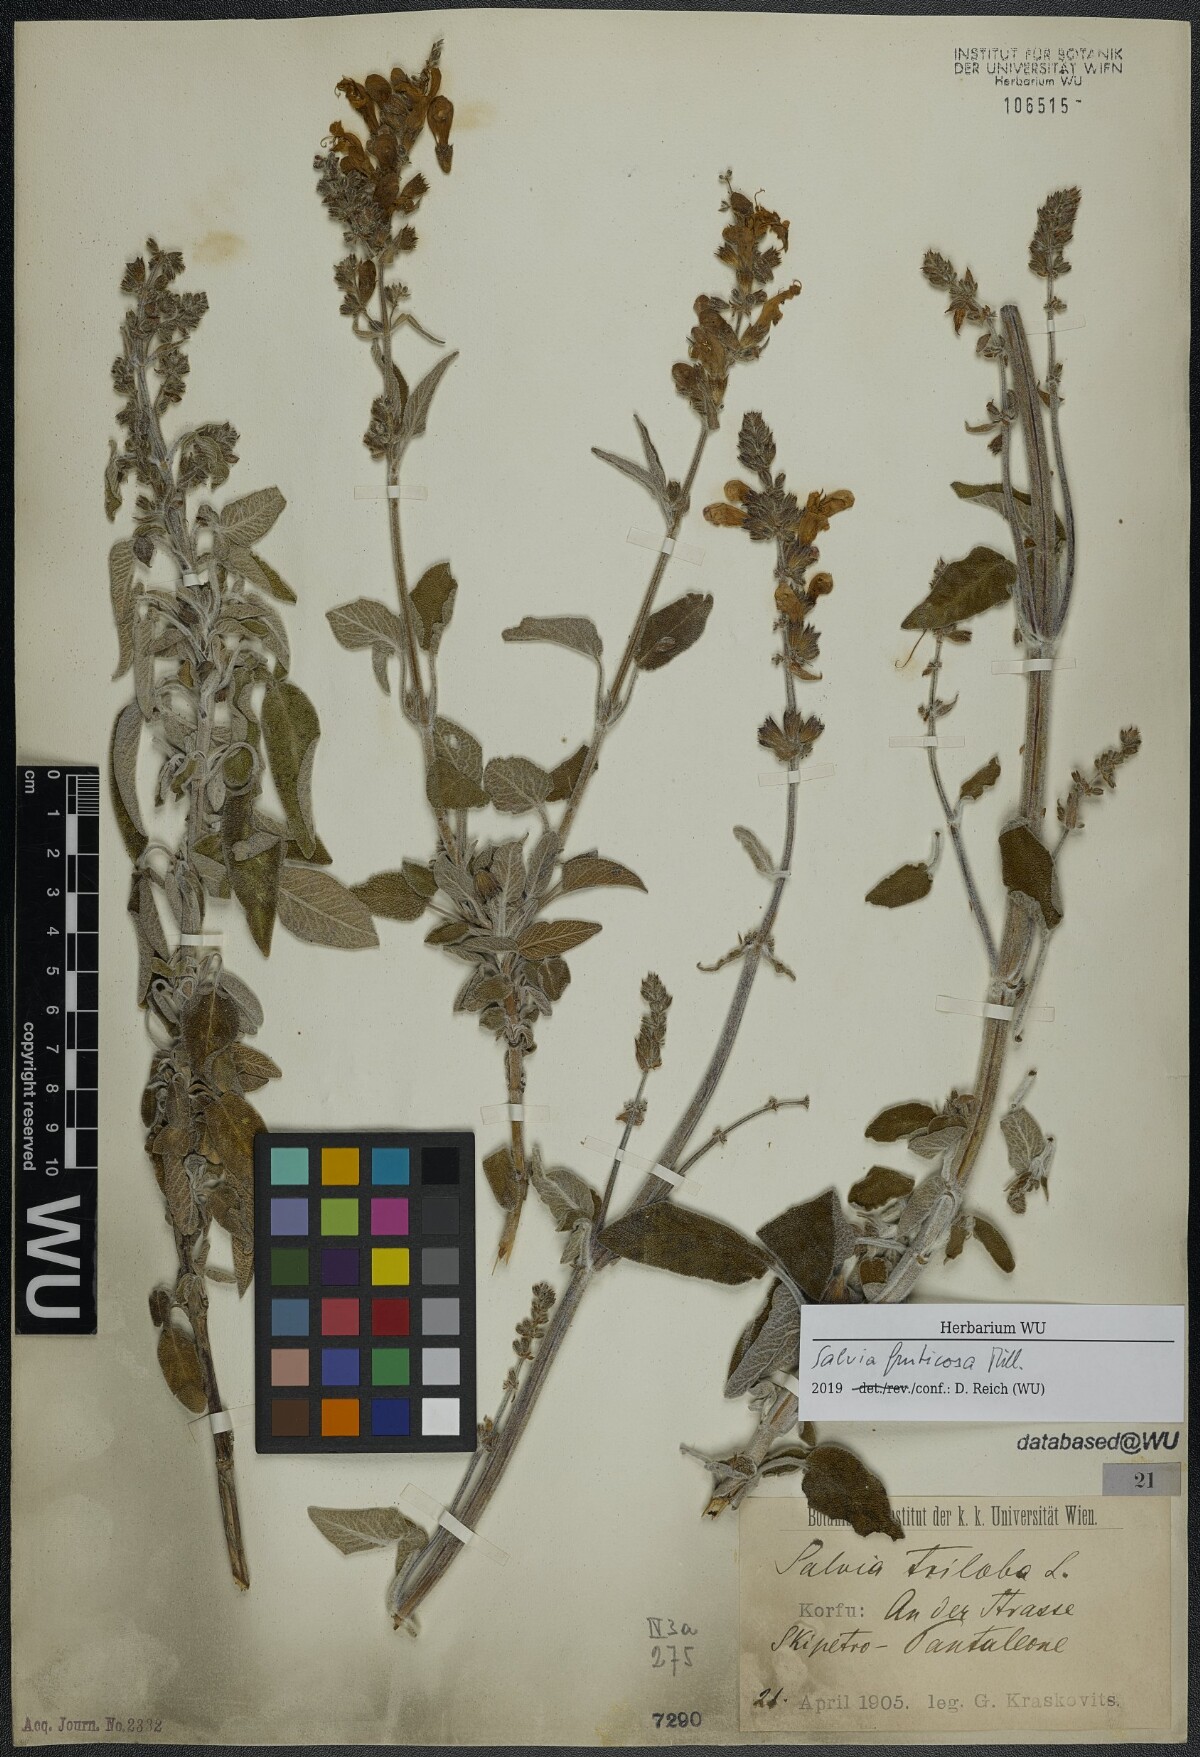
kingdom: Plantae
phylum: Tracheophyta
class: Magnoliopsida
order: Lamiales
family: Lamiaceae
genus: Salvia
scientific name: Salvia fruticosa
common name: Greek sage
